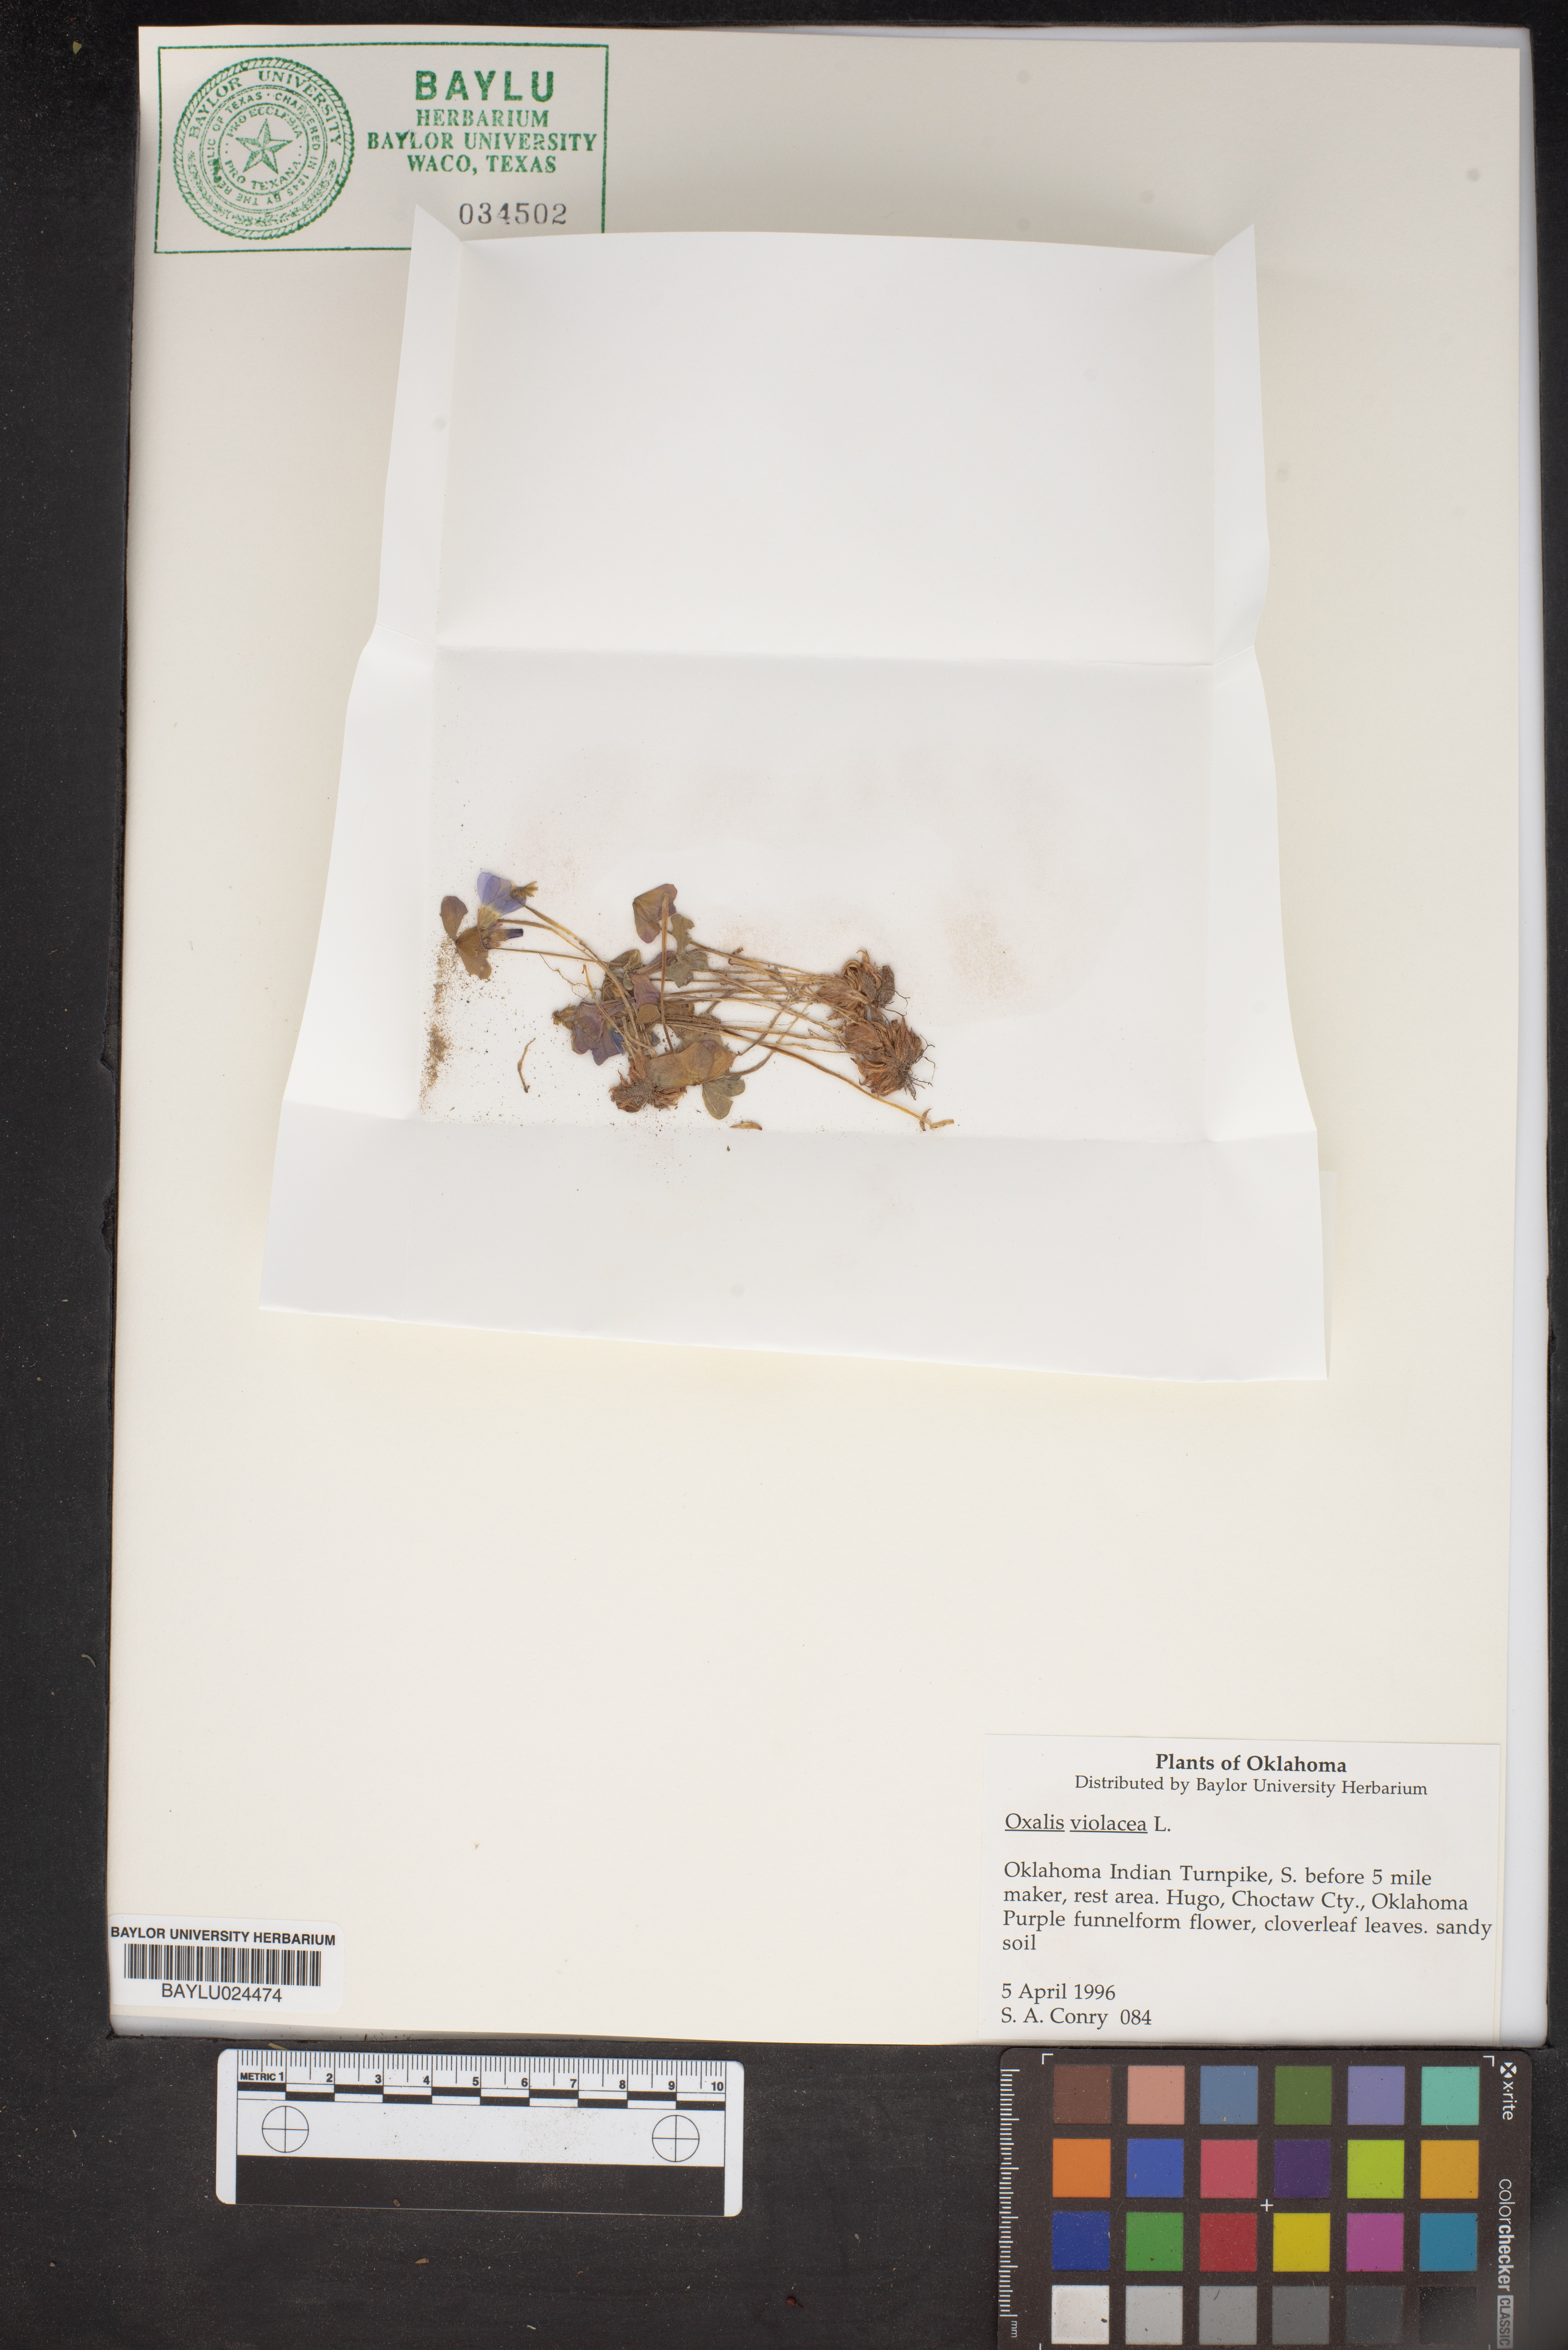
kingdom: Plantae
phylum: Tracheophyta
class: Magnoliopsida
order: Oxalidales
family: Oxalidaceae
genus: Oxalis
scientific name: Oxalis violacea
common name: Violet wood-sorrel
